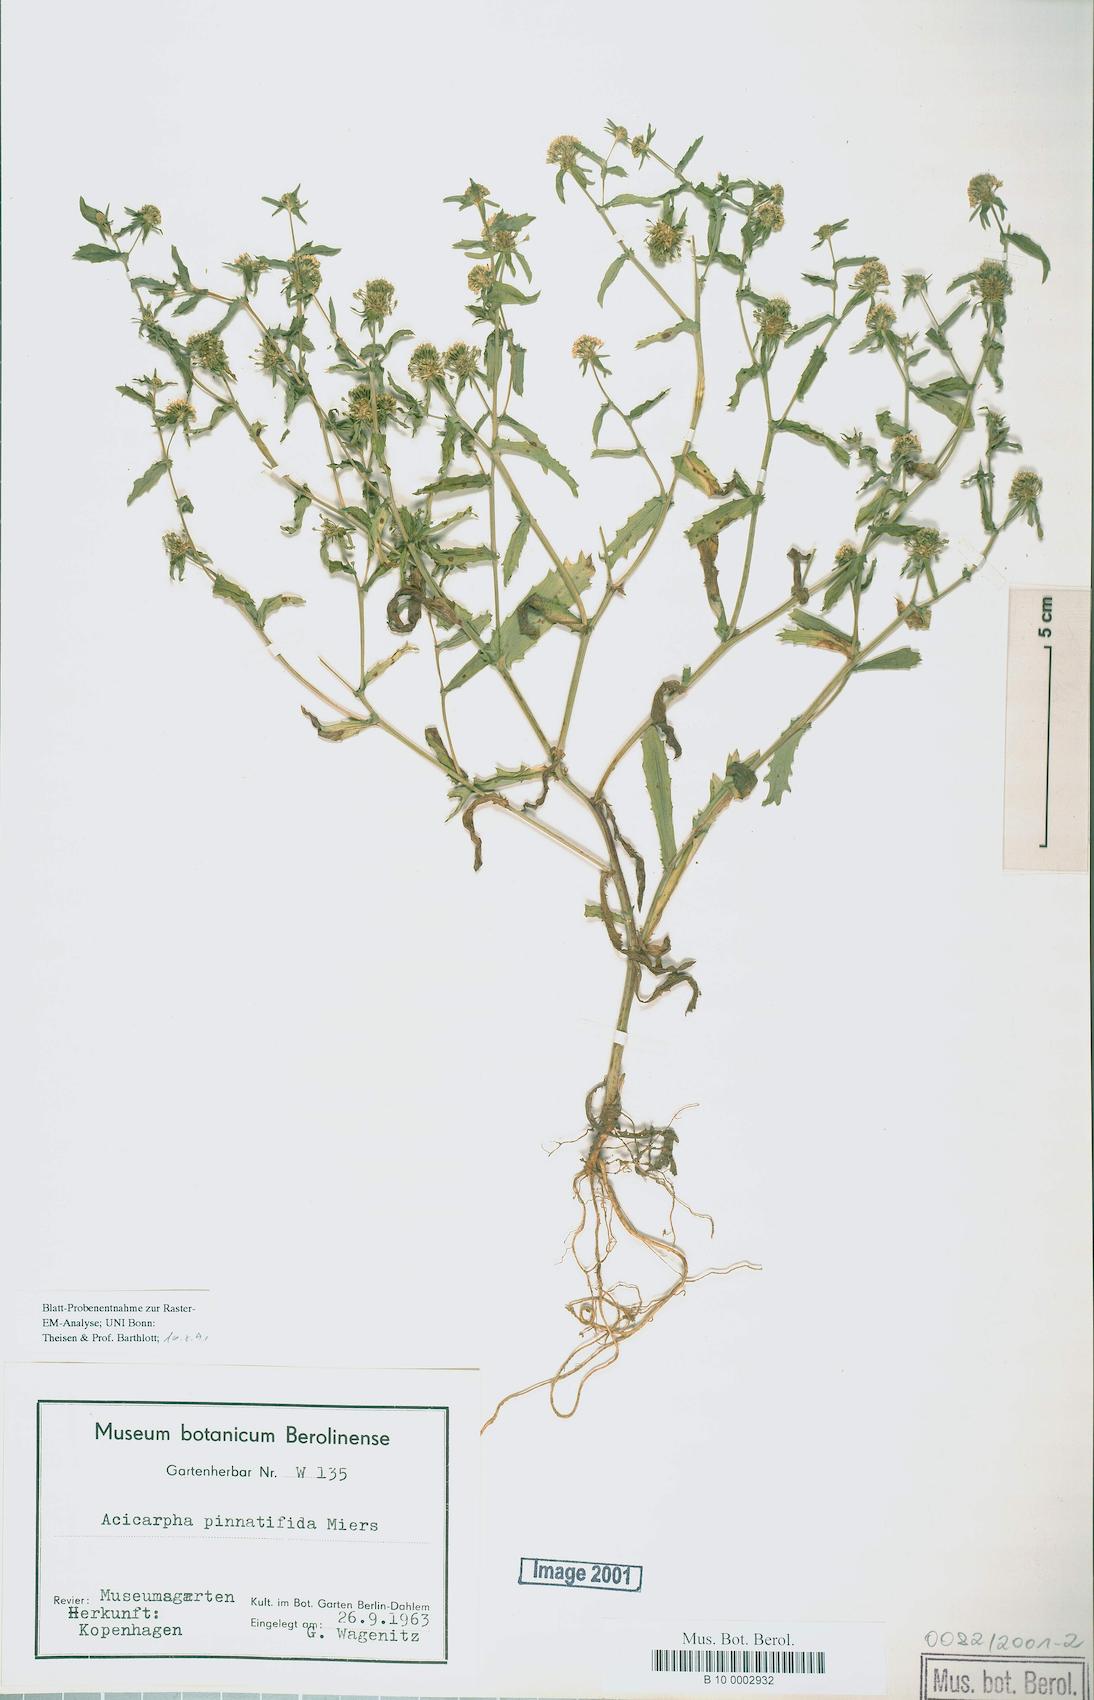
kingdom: Plantae
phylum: Tracheophyta
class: Magnoliopsida
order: Asterales
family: Calyceraceae
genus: Acicarpha
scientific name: Acicarpha tribuloides
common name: Madam gorgon
